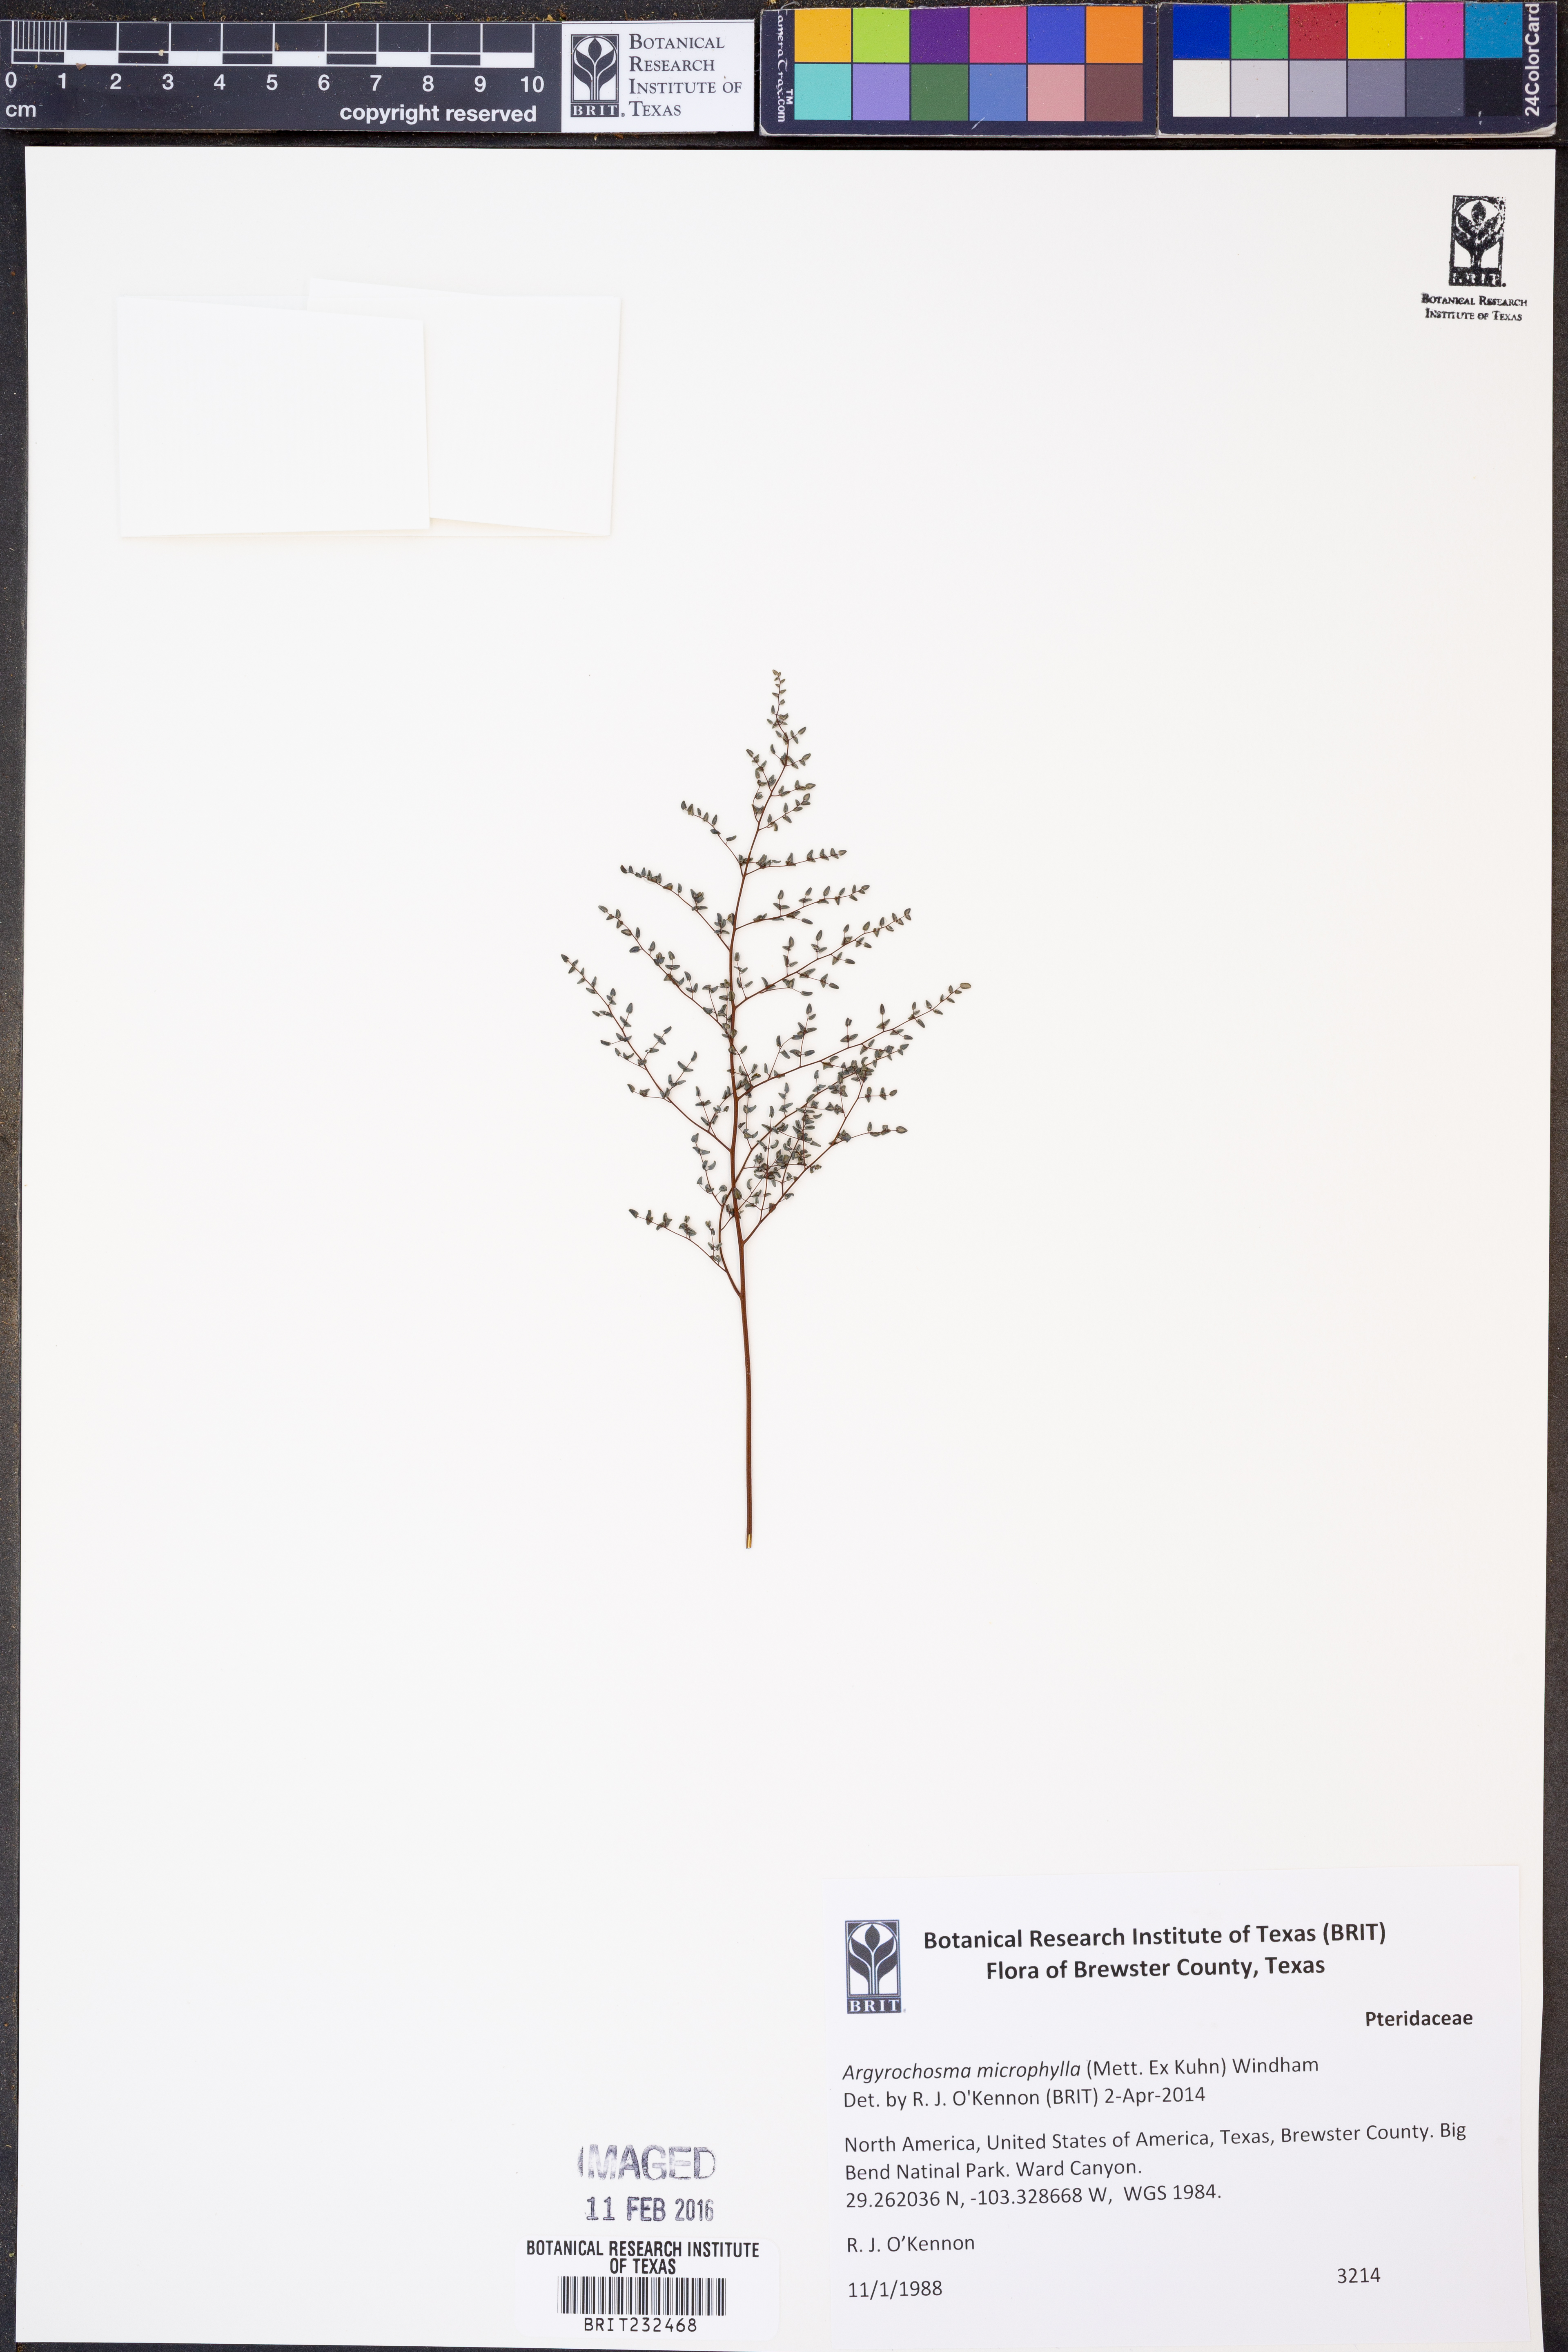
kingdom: Plantae
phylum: Tracheophyta
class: Polypodiopsida
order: Polypodiales
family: Pteridaceae
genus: Argyrochosma
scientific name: Argyrochosma microphylla
